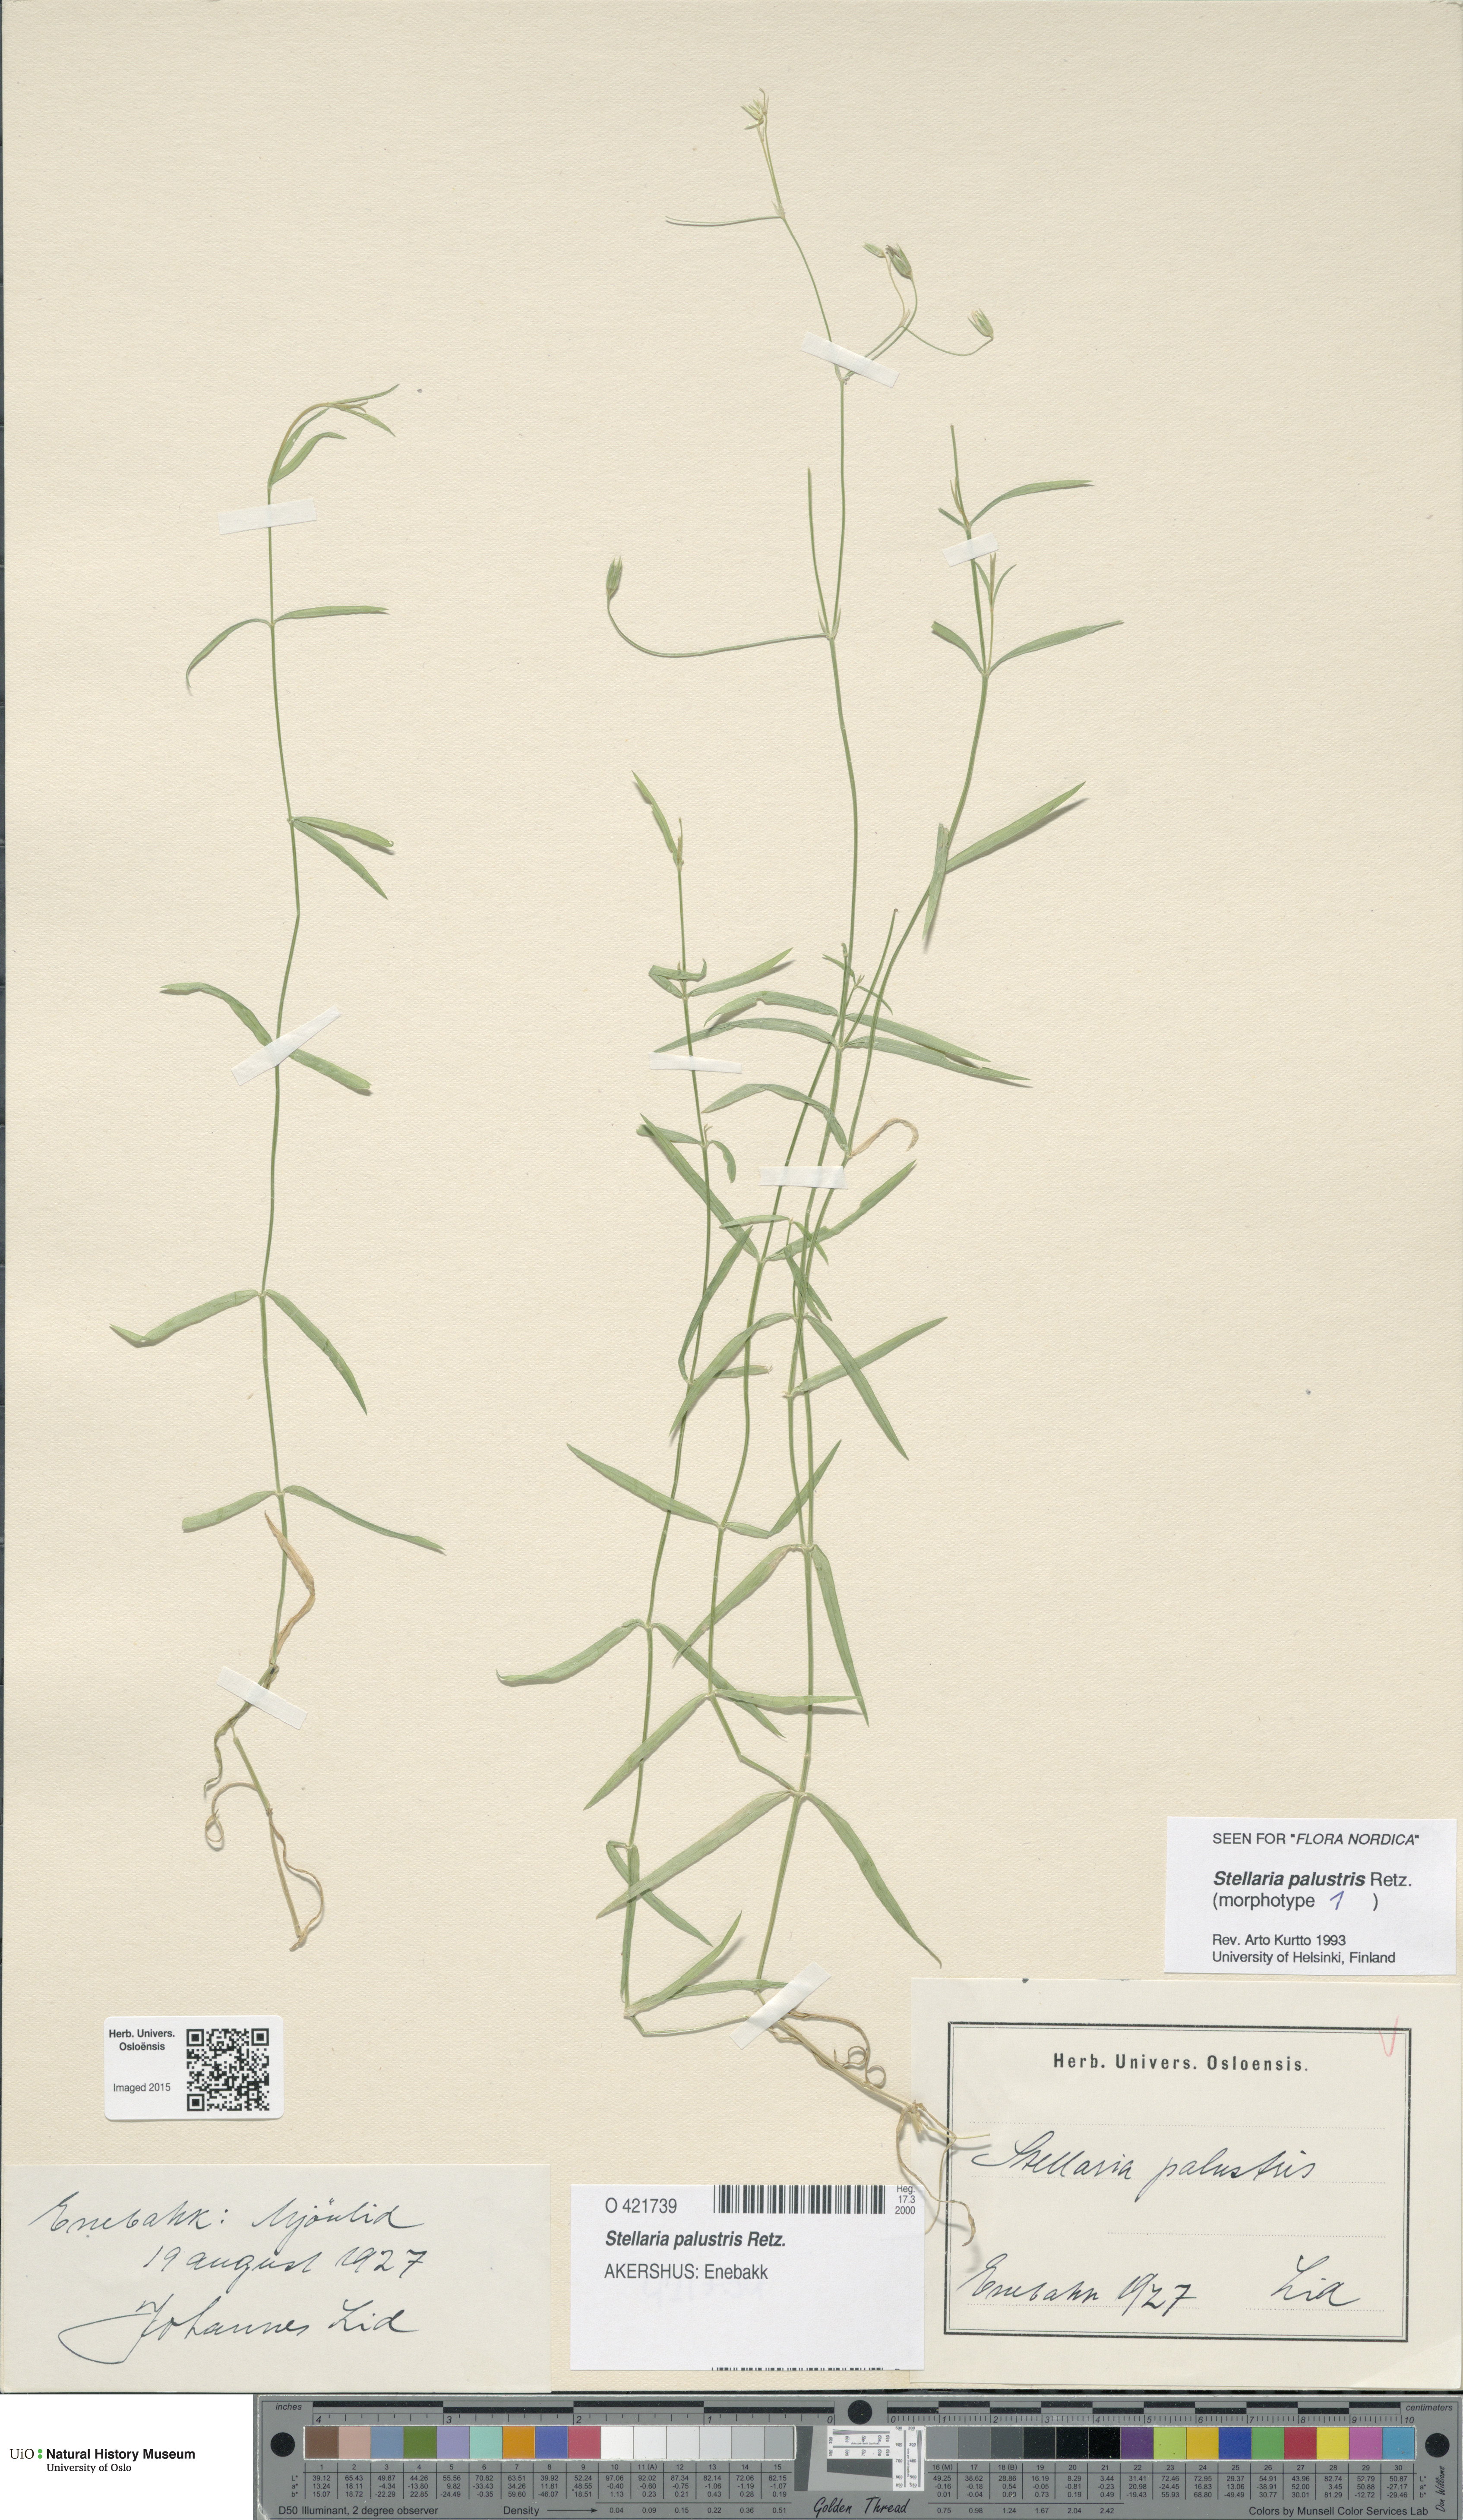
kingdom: Plantae
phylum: Tracheophyta
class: Magnoliopsida
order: Caryophyllales
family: Caryophyllaceae
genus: Stellaria
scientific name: Stellaria palustris
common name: Marsh stitchwort
